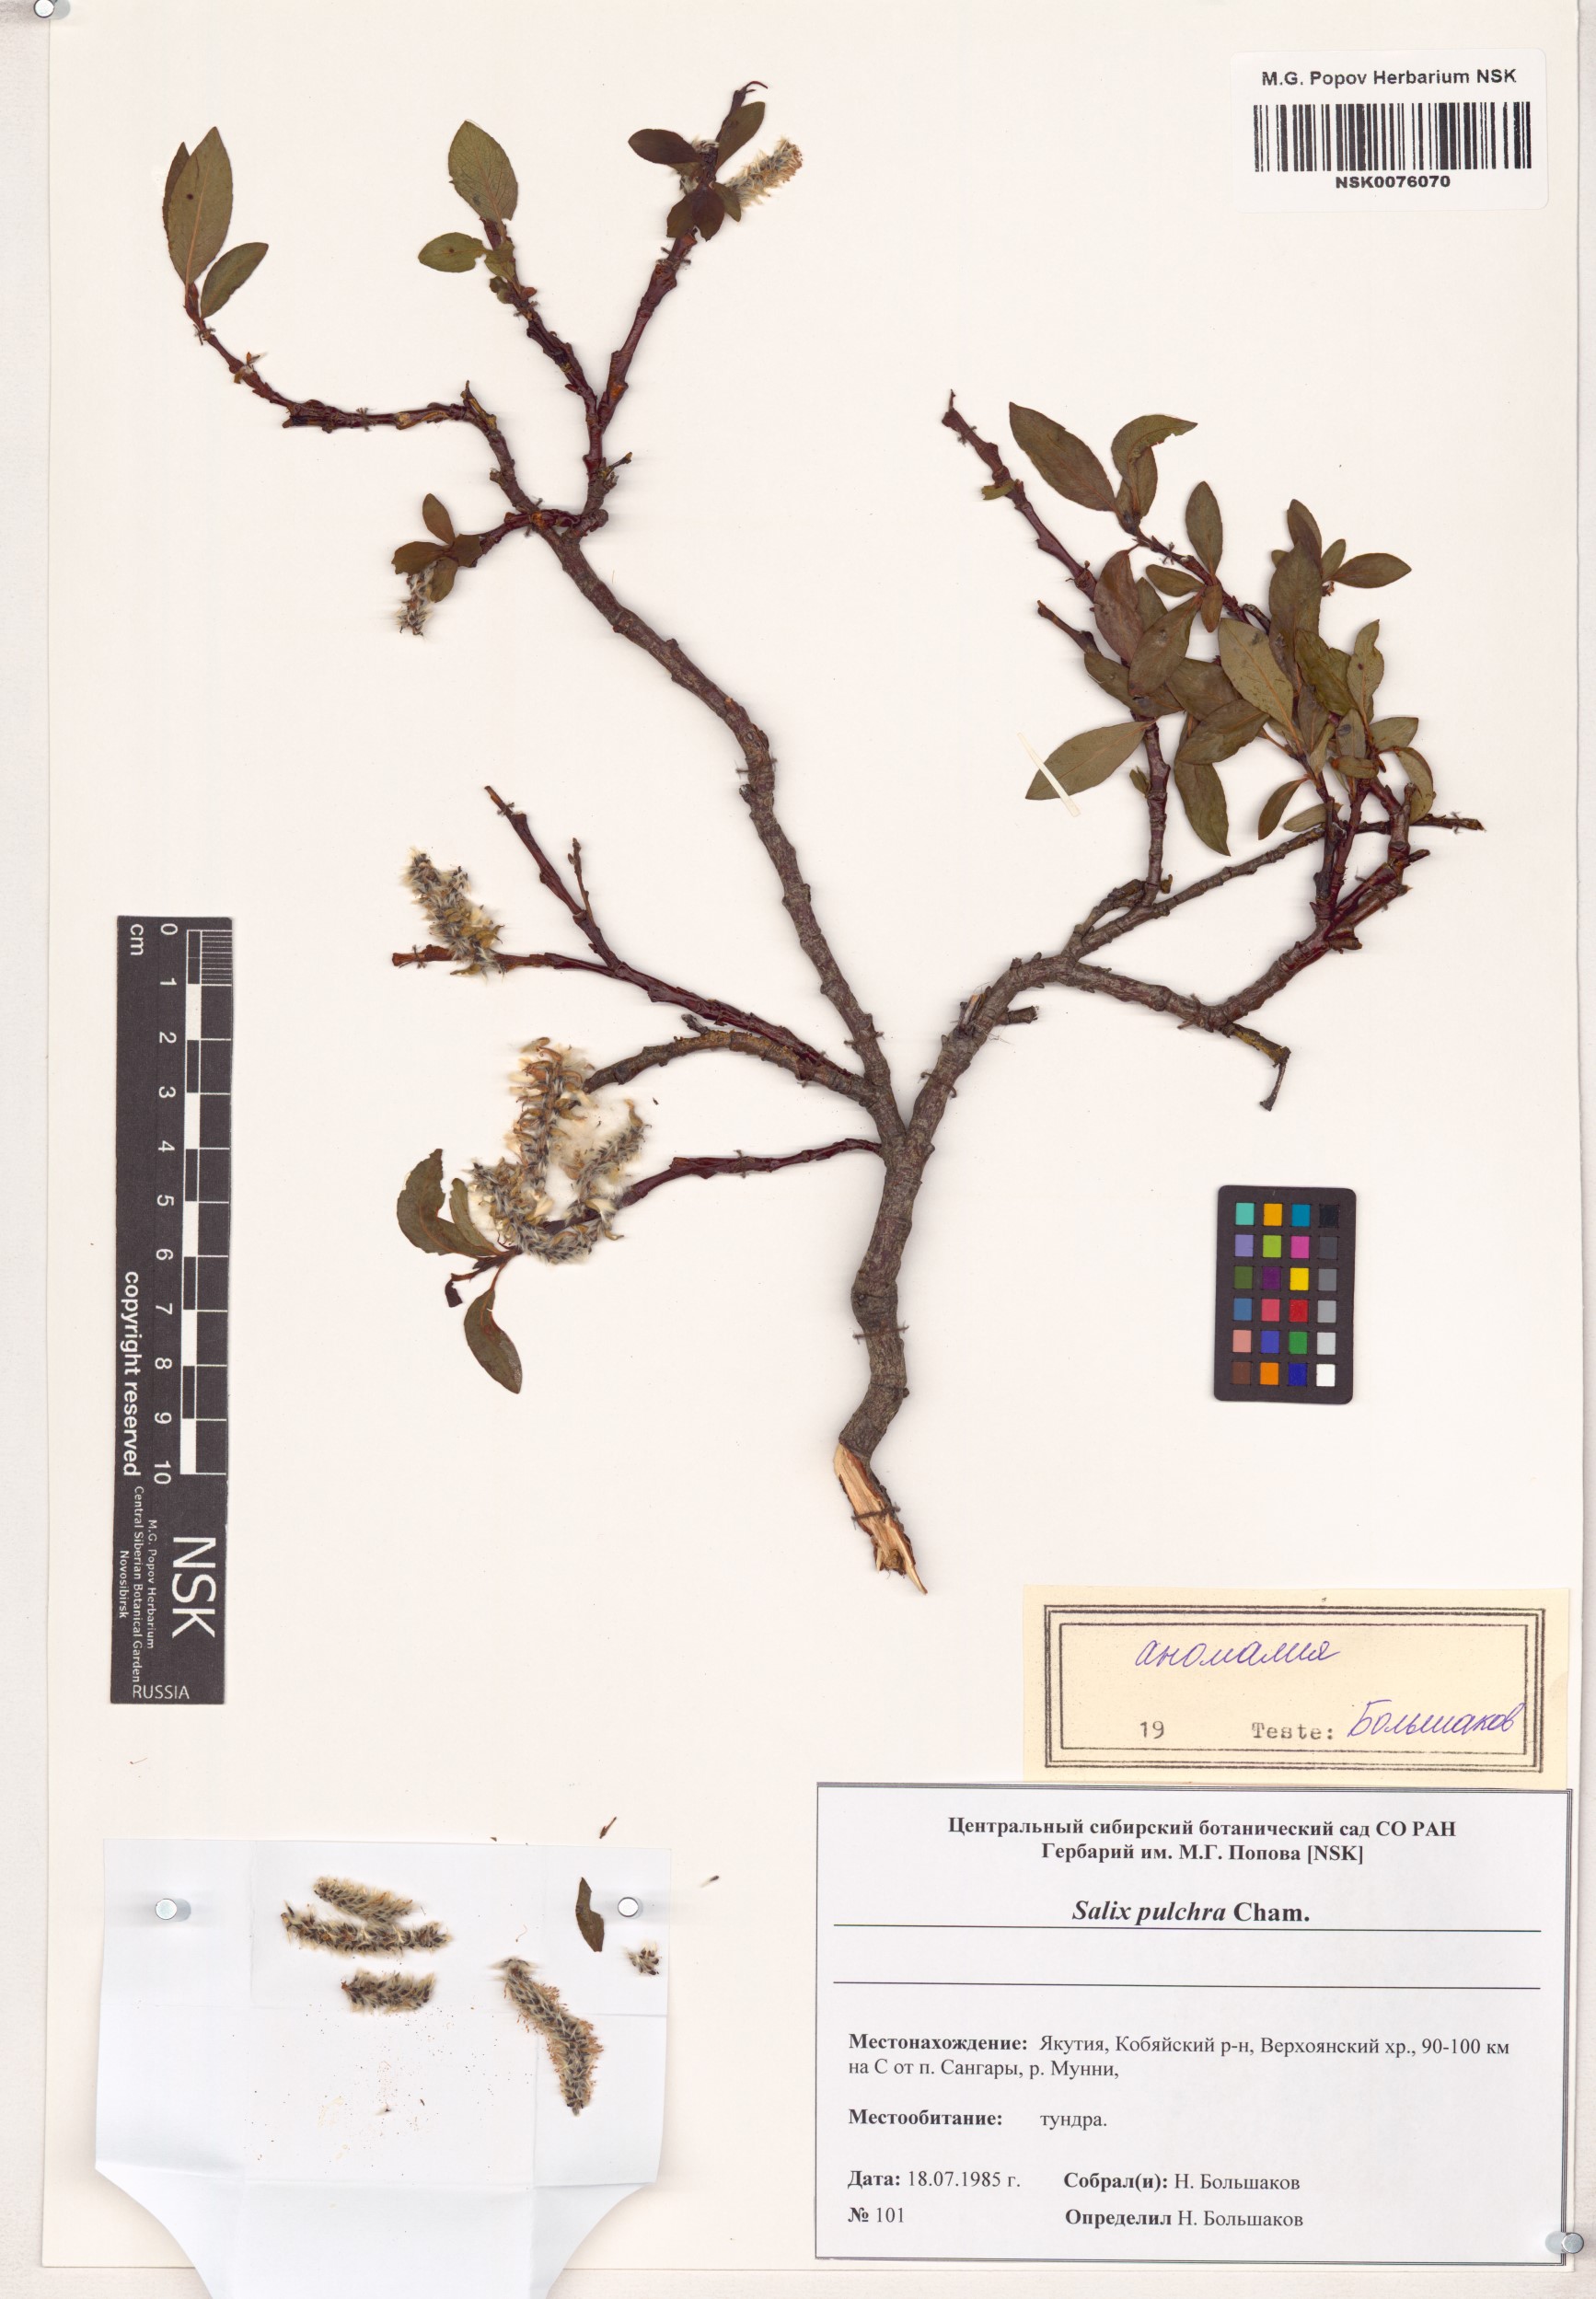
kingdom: Plantae
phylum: Tracheophyta
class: Magnoliopsida
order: Malpighiales
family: Salicaceae
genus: Salix
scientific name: Salix pulchra
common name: Diamond-leaved willow
